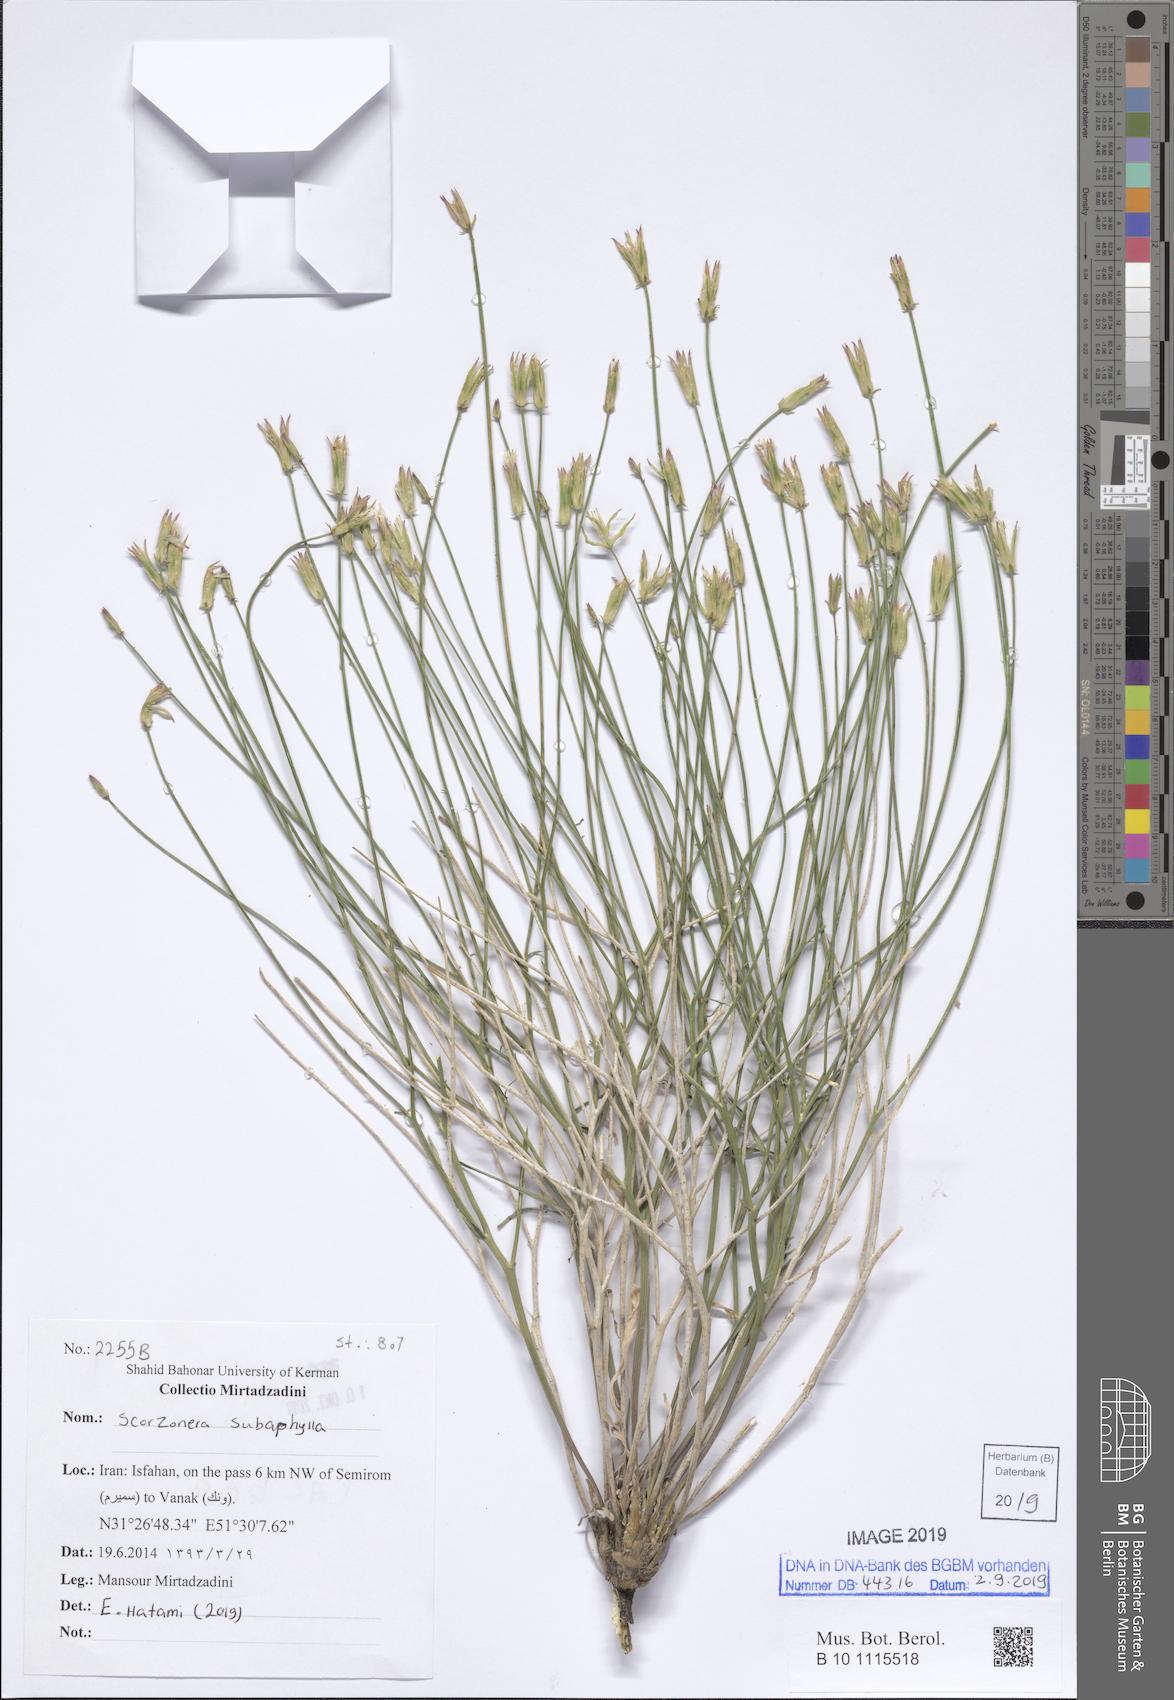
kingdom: Plantae
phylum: Tracheophyta
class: Magnoliopsida
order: Asterales
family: Asteraceae
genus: Gelasia
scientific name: Gelasia
